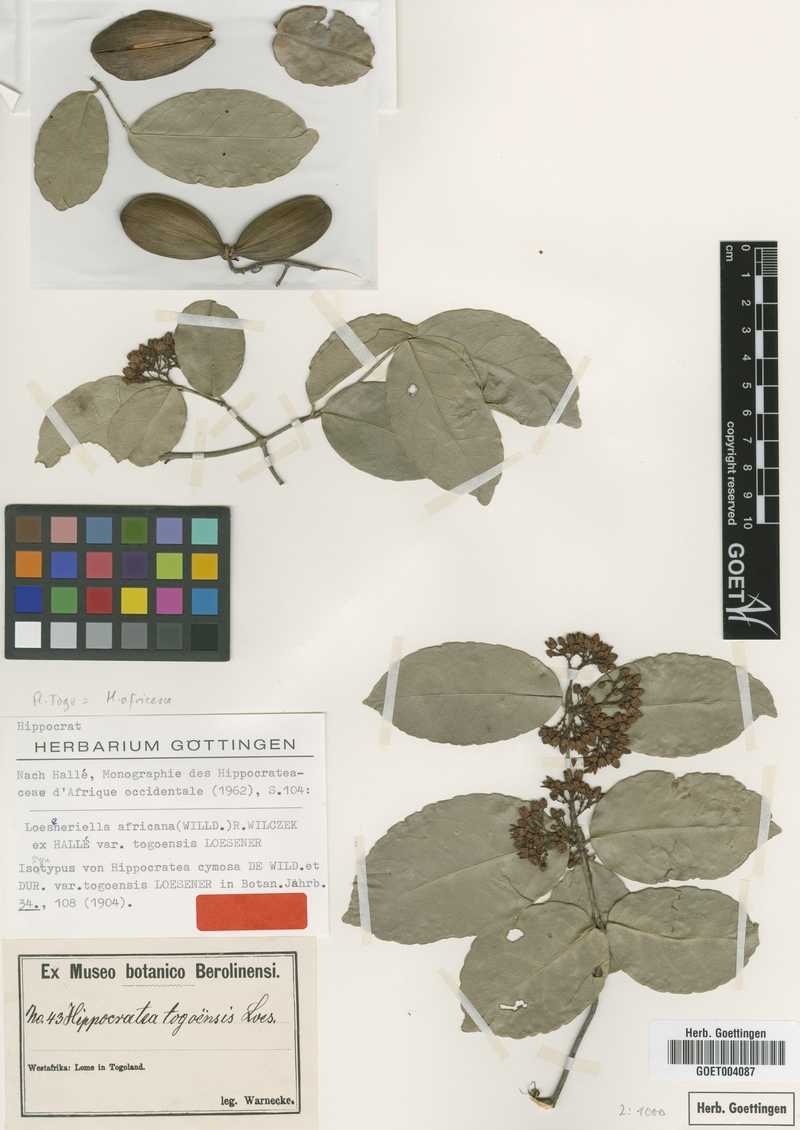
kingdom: Plantae
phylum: Tracheophyta
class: Magnoliopsida
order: Celastrales
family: Celastraceae
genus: Loeseneriella
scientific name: Loeseneriella africana
